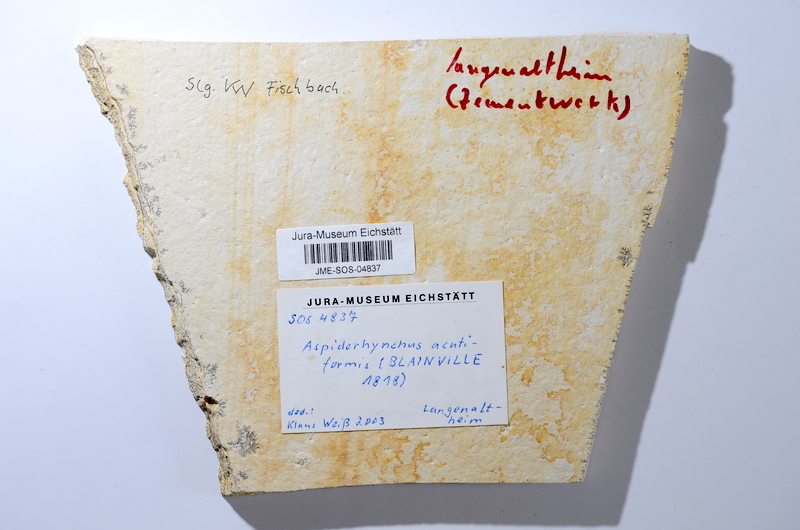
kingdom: Animalia
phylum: Chordata
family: Aspidorhynchidae
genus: Aspidorhynchus
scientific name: Aspidorhynchus acutirostris
